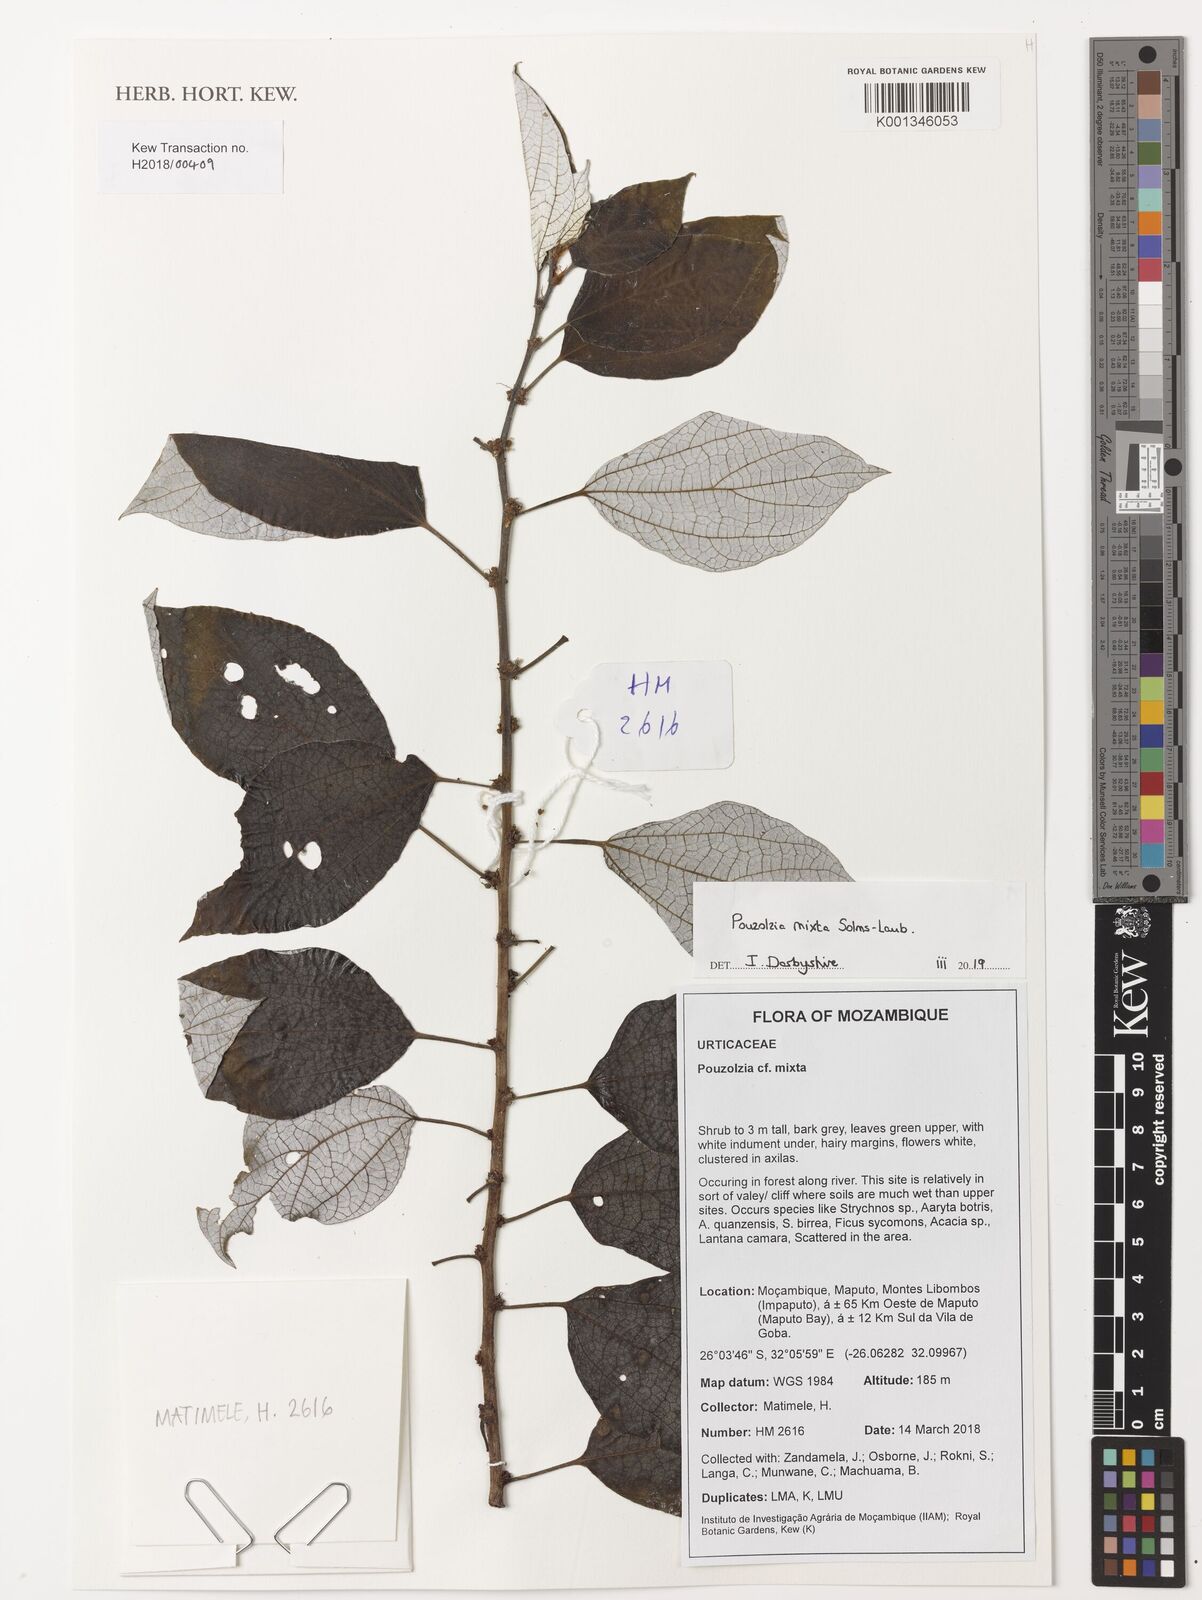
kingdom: Plantae
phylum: Tracheophyta
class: Magnoliopsida
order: Rosales
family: Urticaceae
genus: Pouzolzia
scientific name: Pouzolzia mixta
